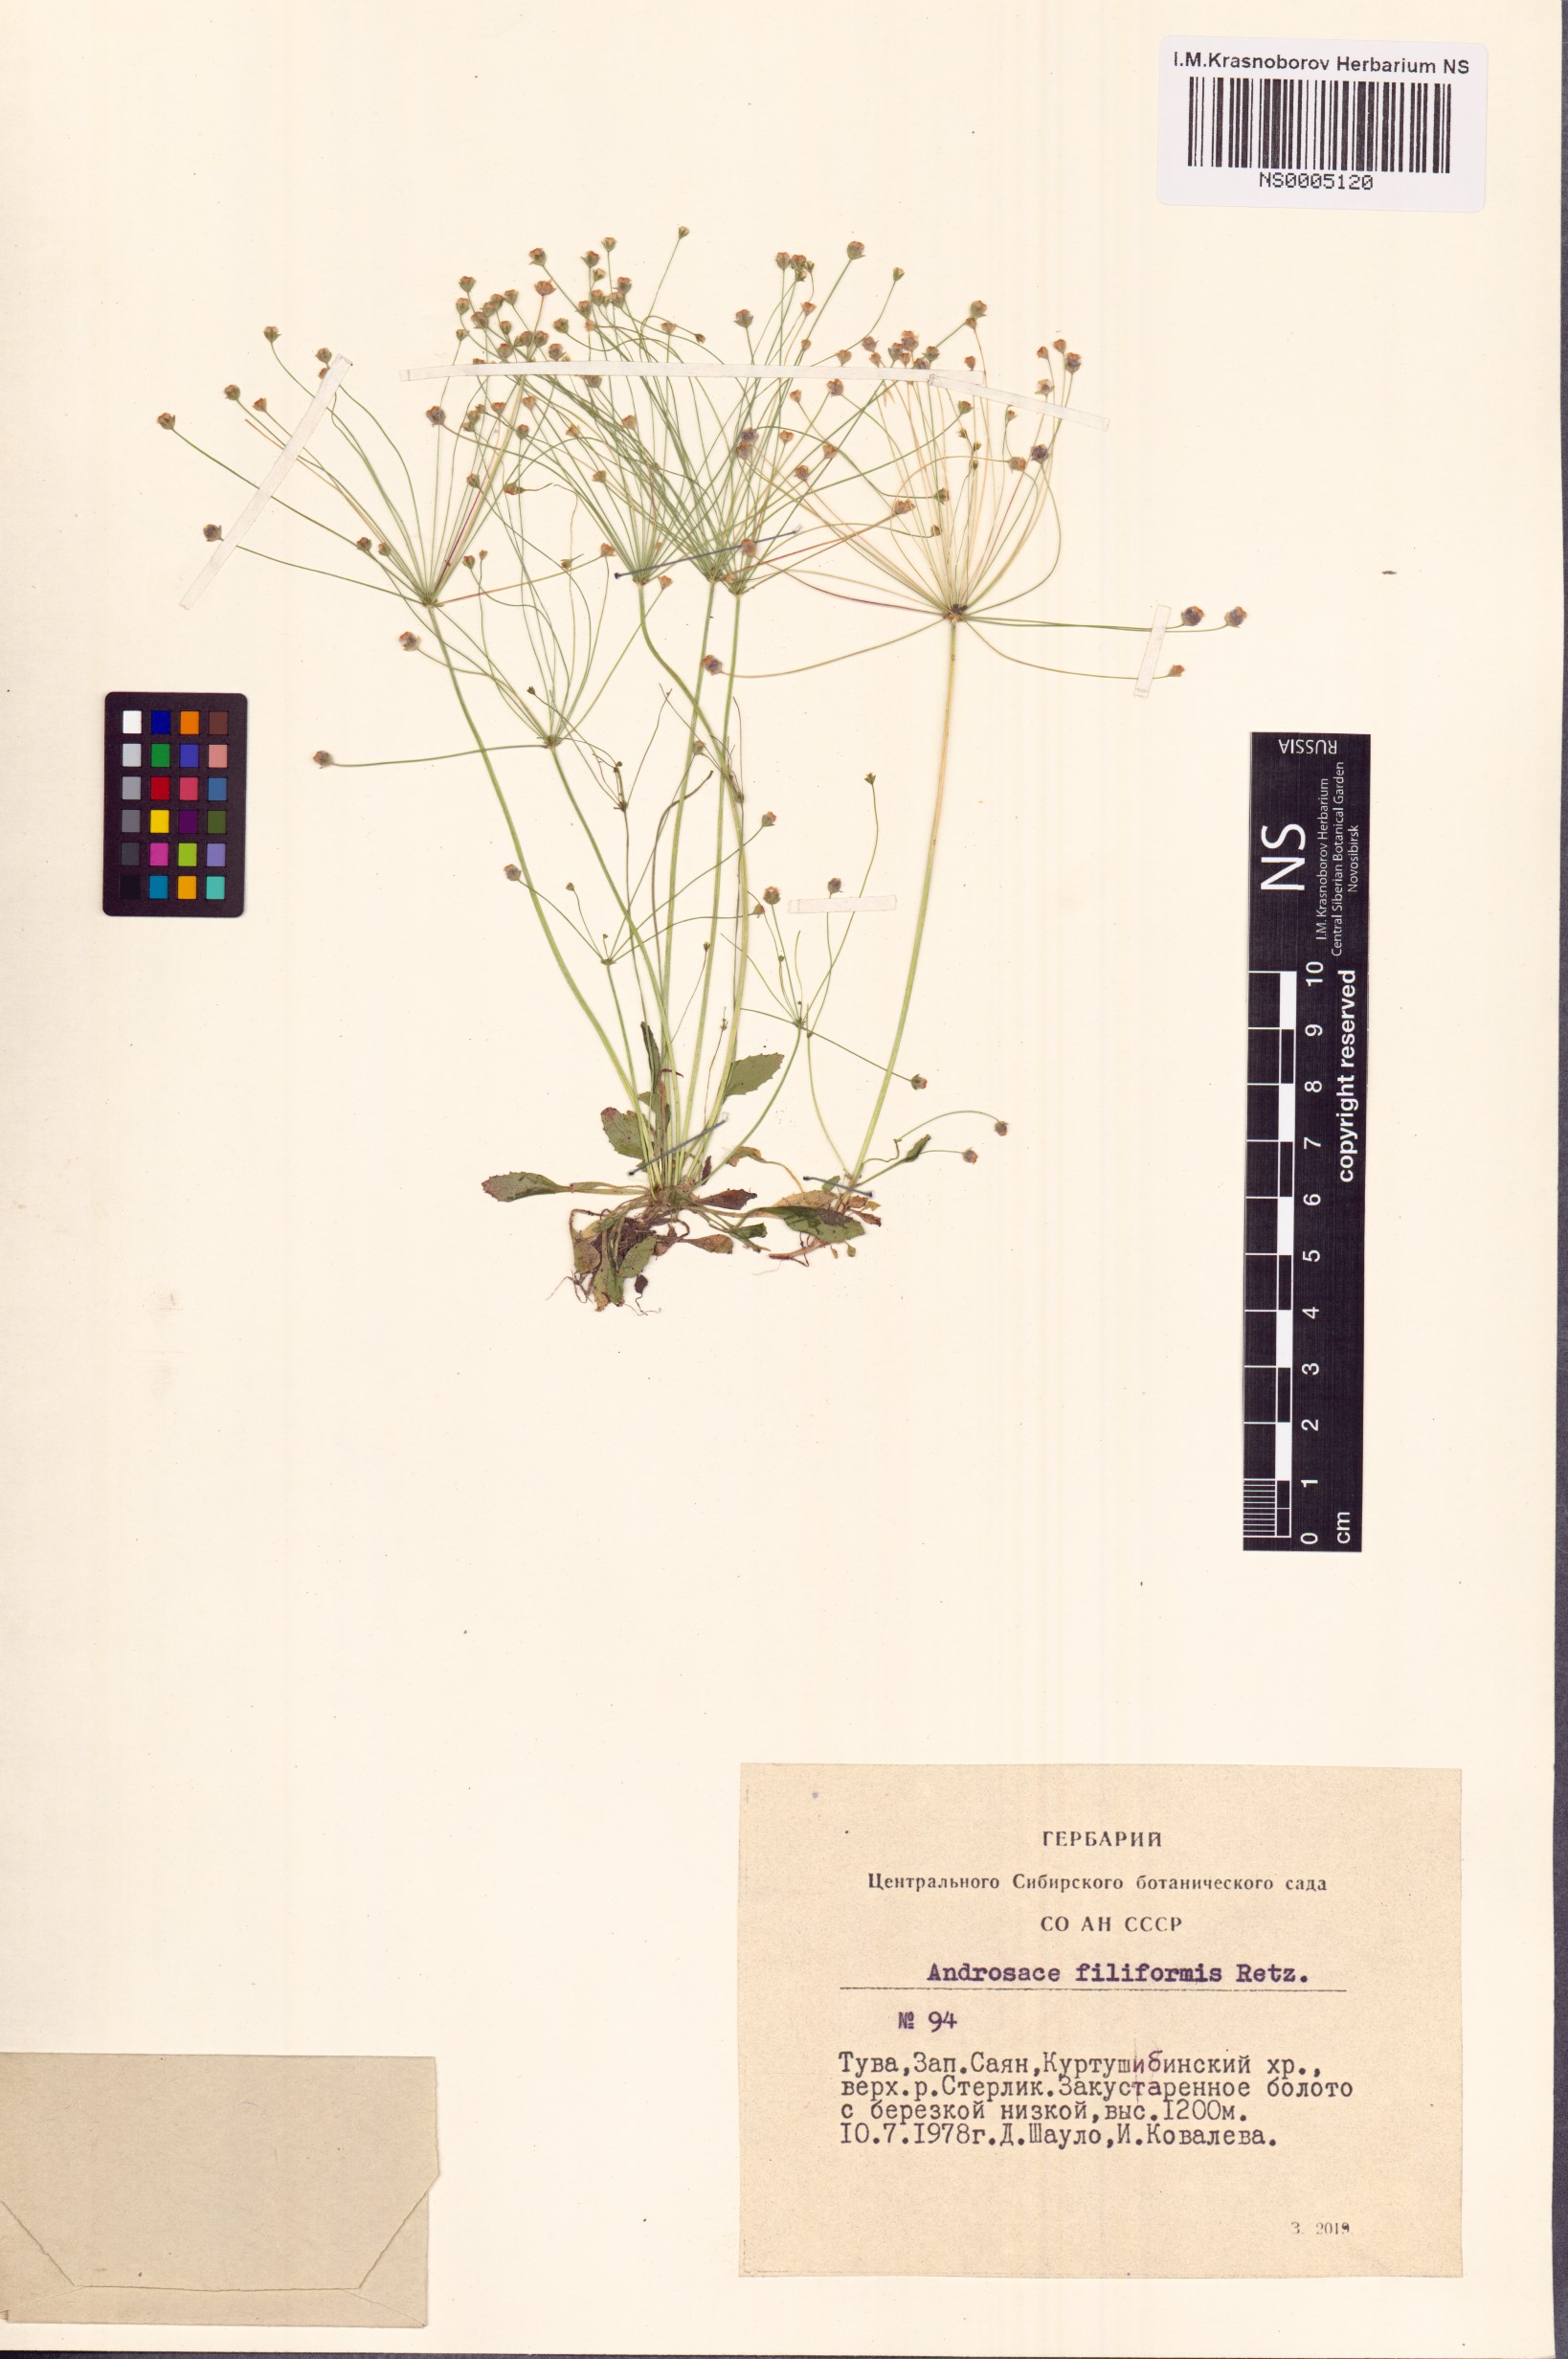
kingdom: Plantae
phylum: Tracheophyta
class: Magnoliopsida
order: Ericales
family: Primulaceae
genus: Androsace
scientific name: Androsace filiformis
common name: Filiform rock jasmine
